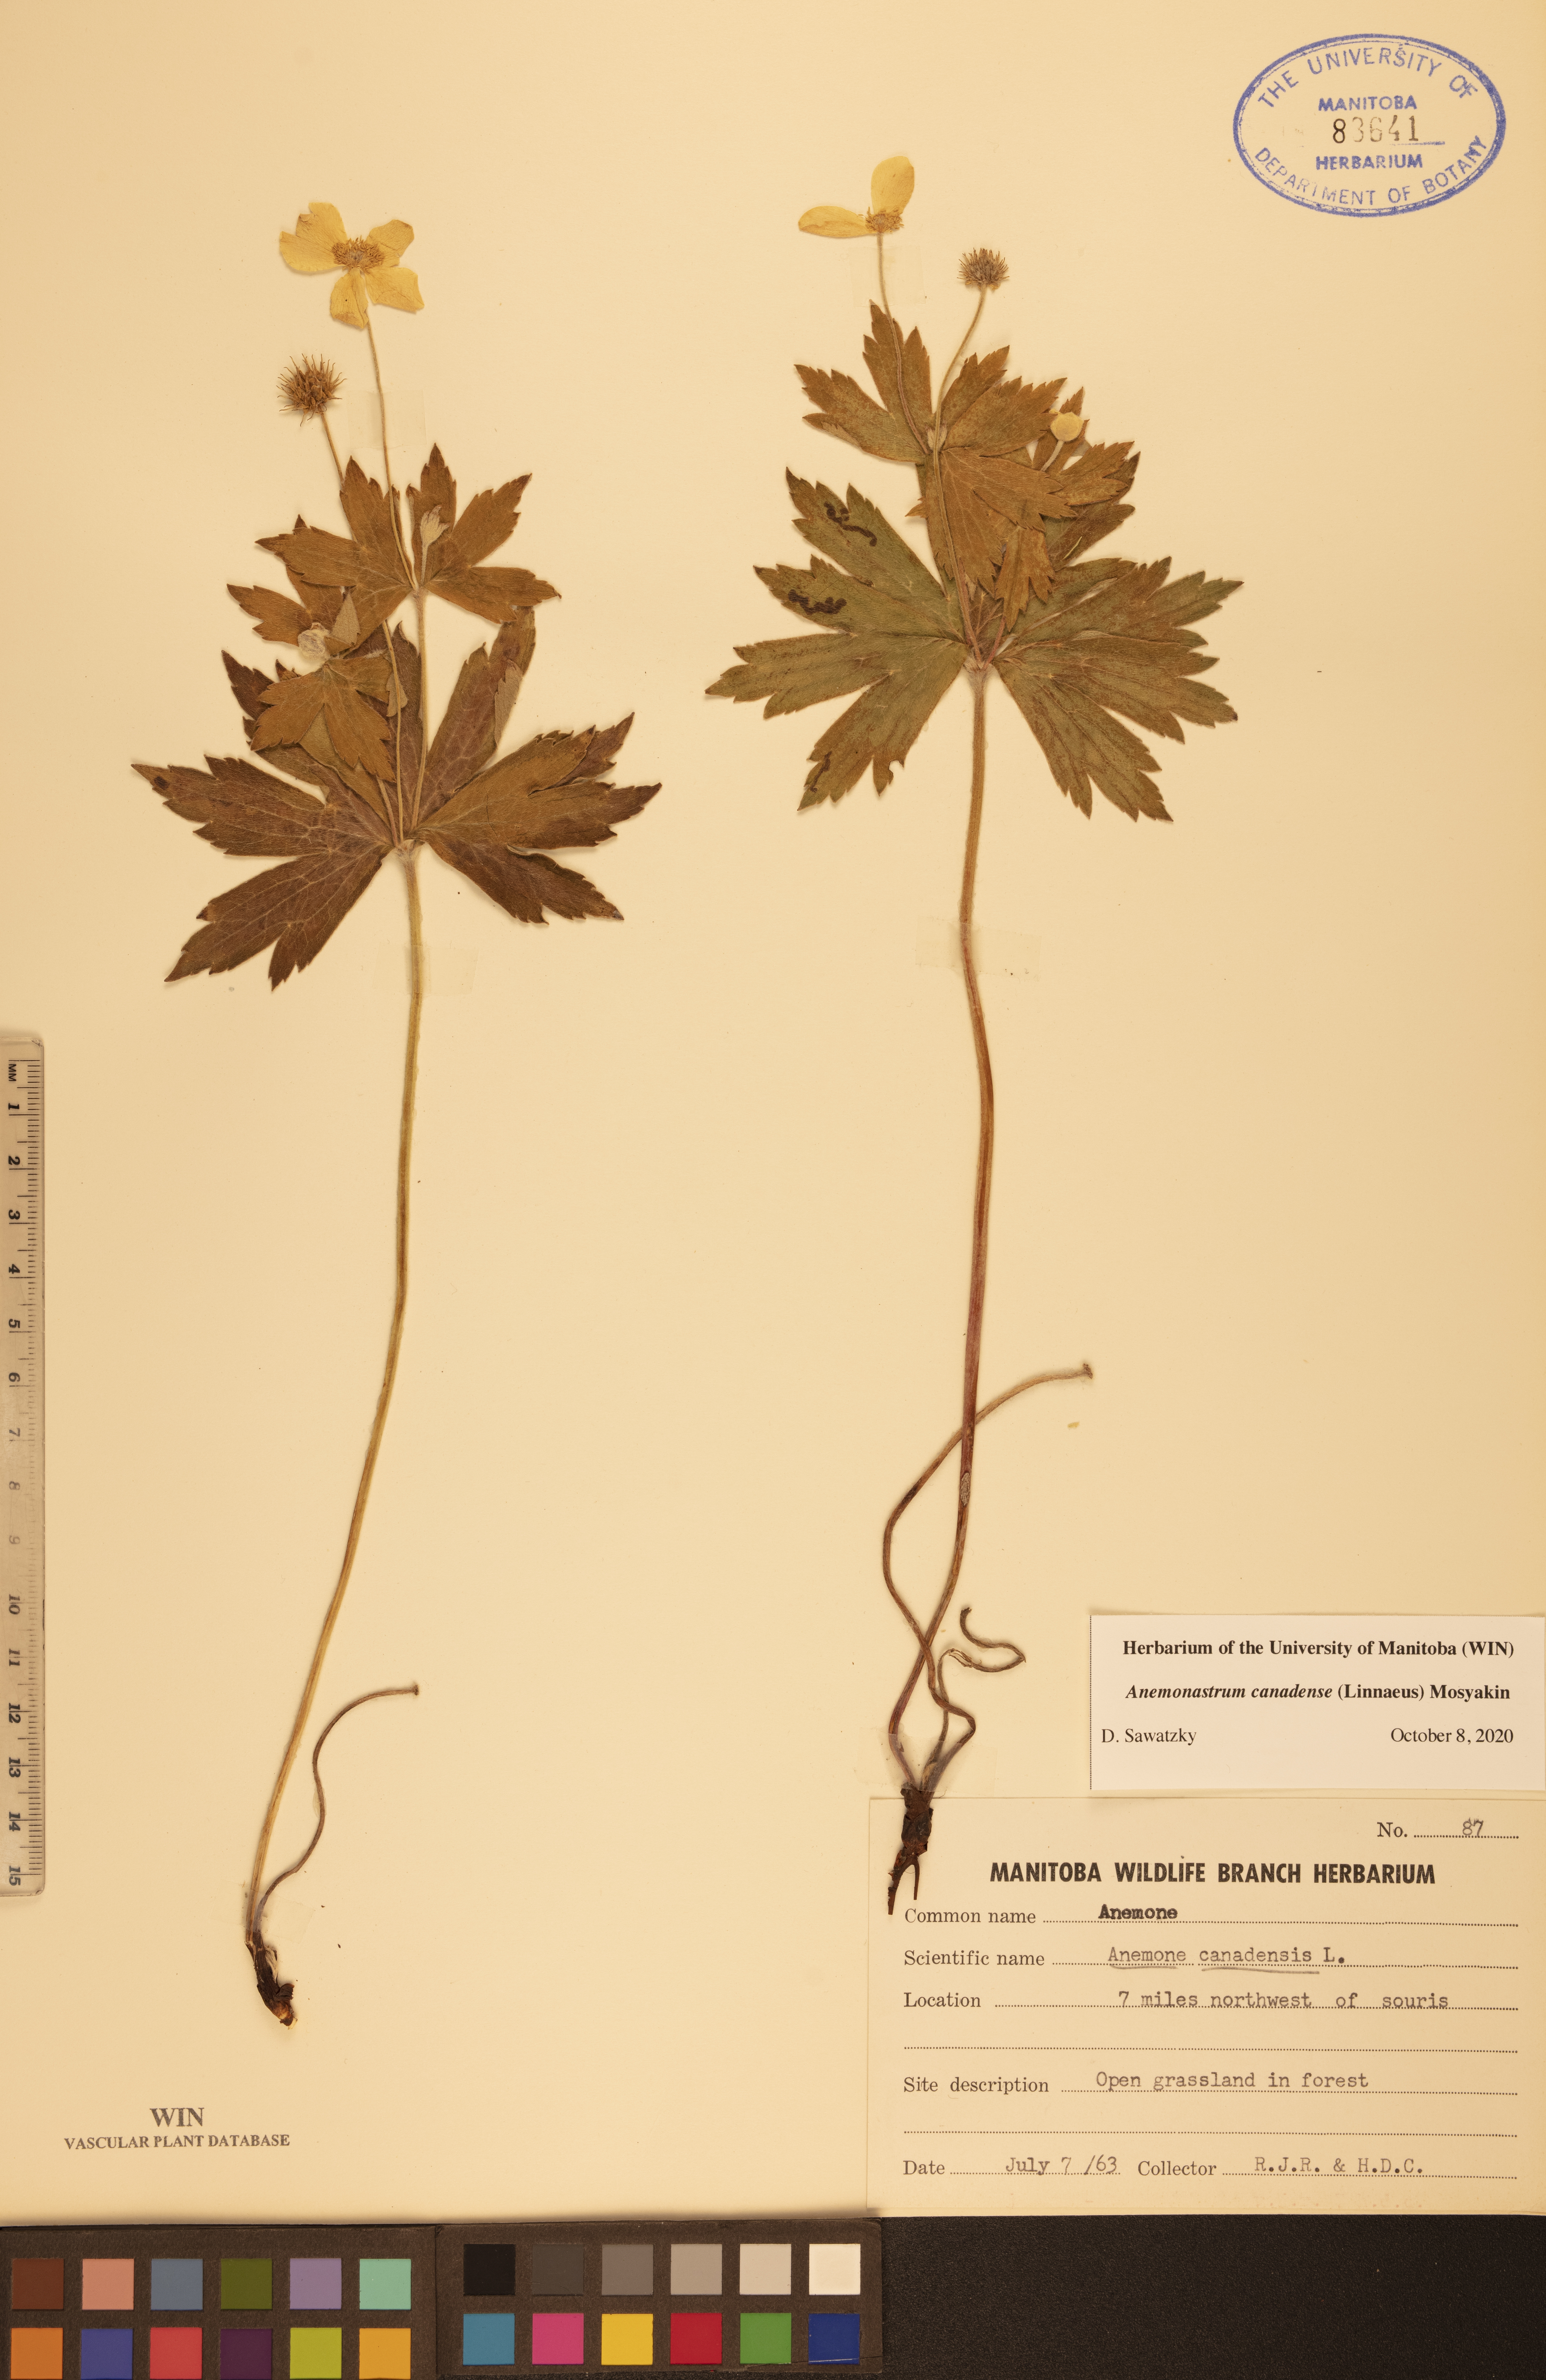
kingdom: Plantae
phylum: Tracheophyta
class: Magnoliopsida
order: Ranunculales
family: Ranunculaceae
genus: Anemonastrum
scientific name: Anemonastrum canadense
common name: Canada anemone
